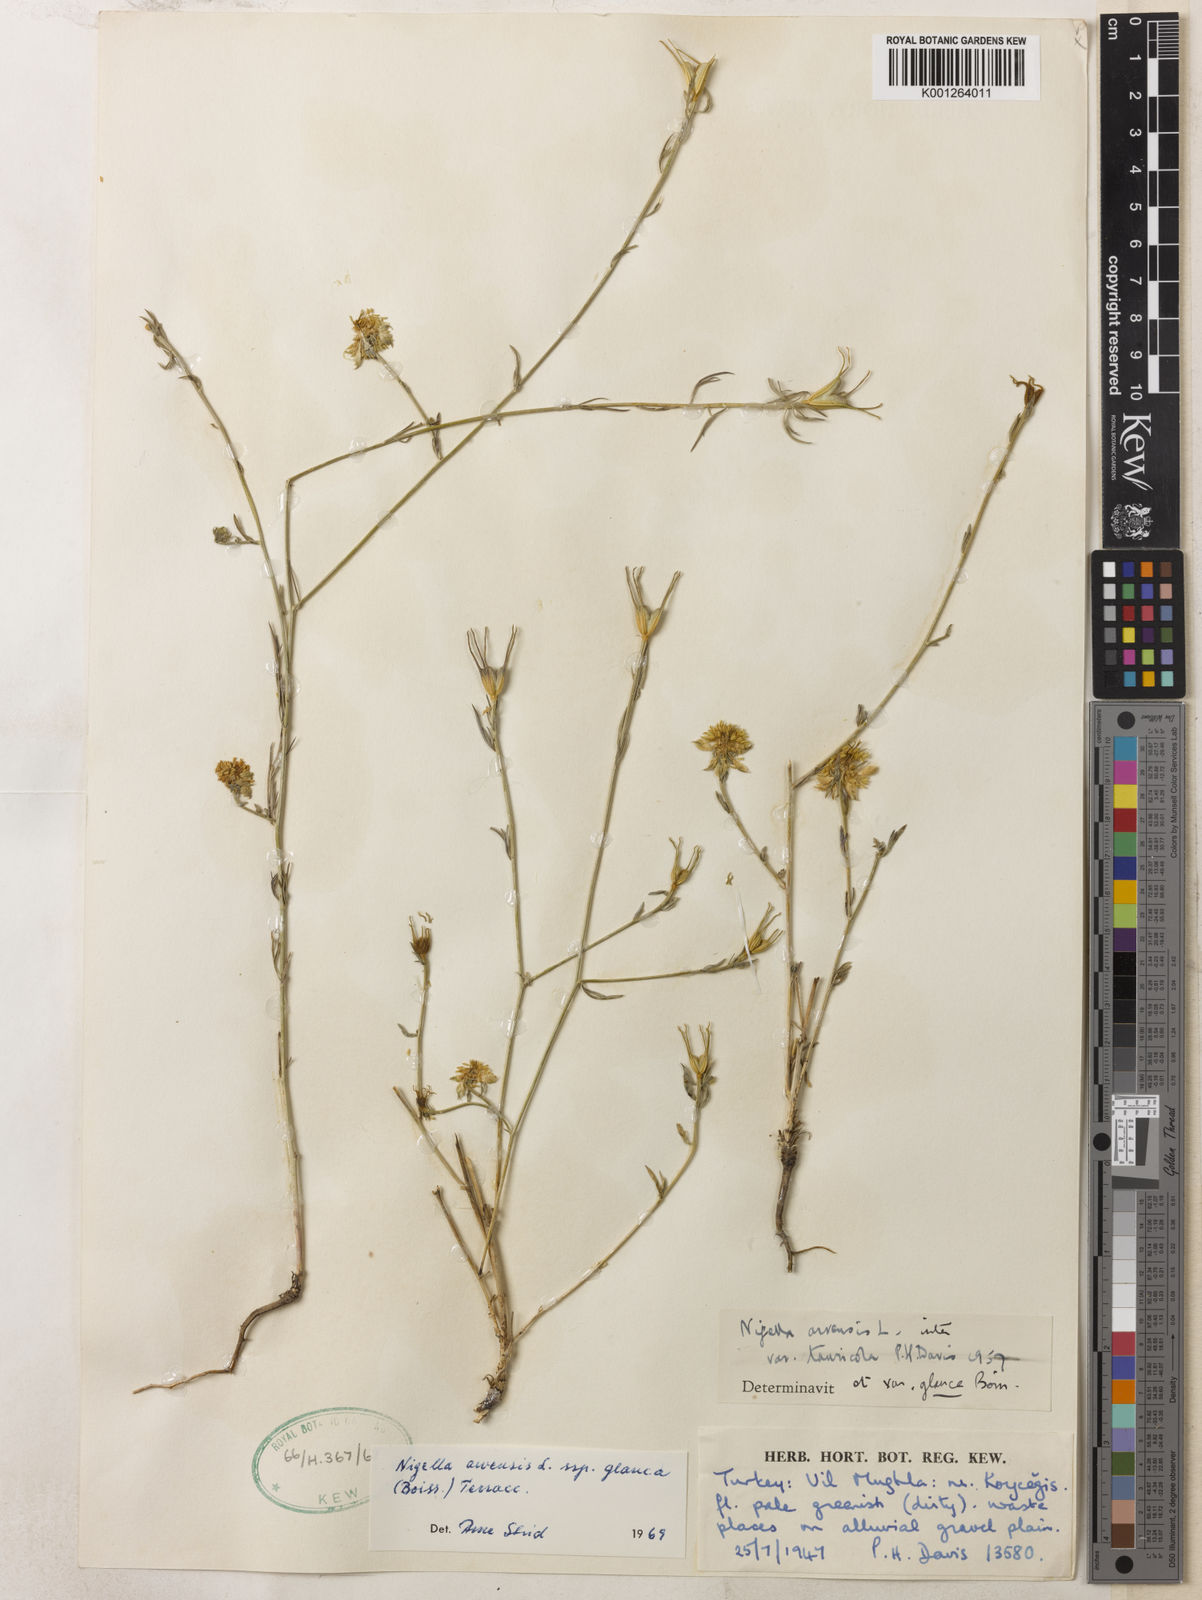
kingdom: Plantae
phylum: Tracheophyta
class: Magnoliopsida
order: Ranunculales
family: Ranunculaceae
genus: Nigella
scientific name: Nigella arvensis
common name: Wild fennel-flower
